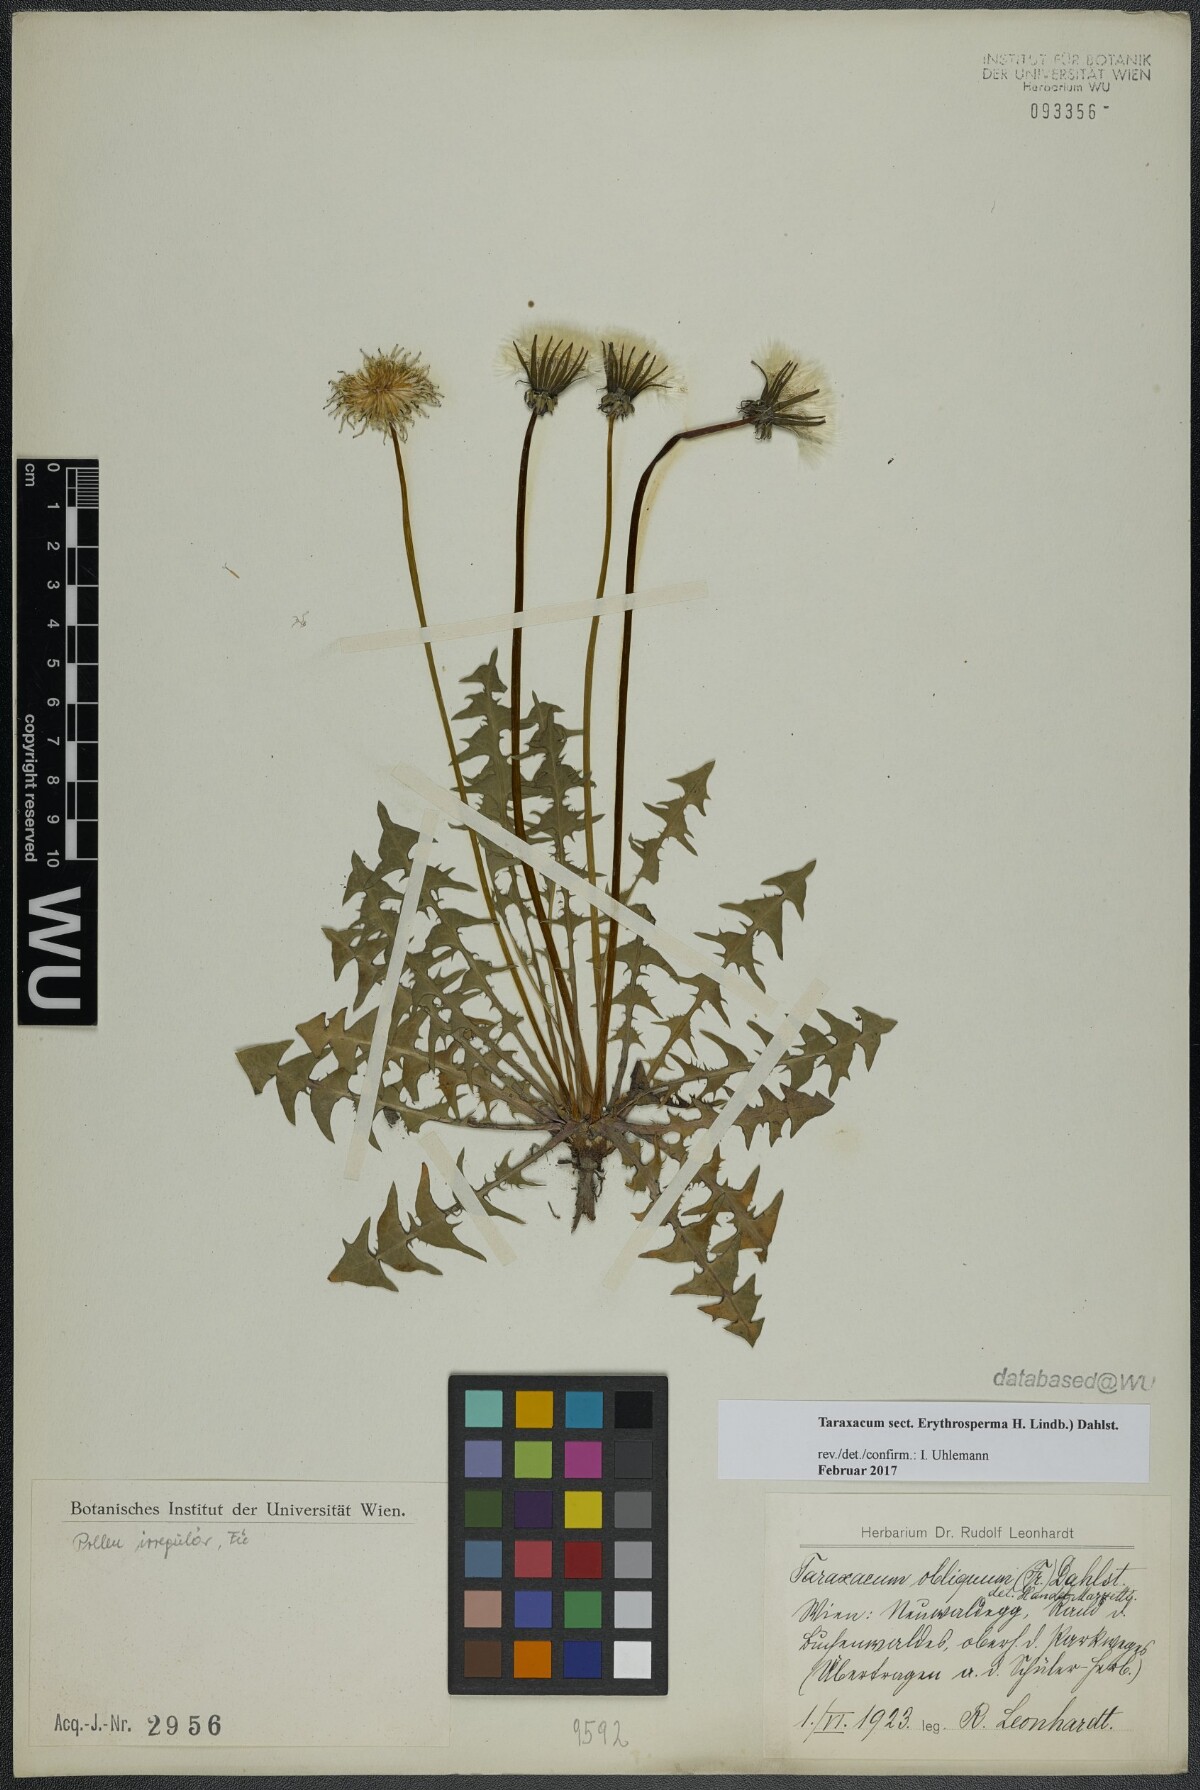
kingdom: Plantae
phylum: Tracheophyta
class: Magnoliopsida
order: Asterales
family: Asteraceae
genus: Taraxacum
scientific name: Taraxacum
